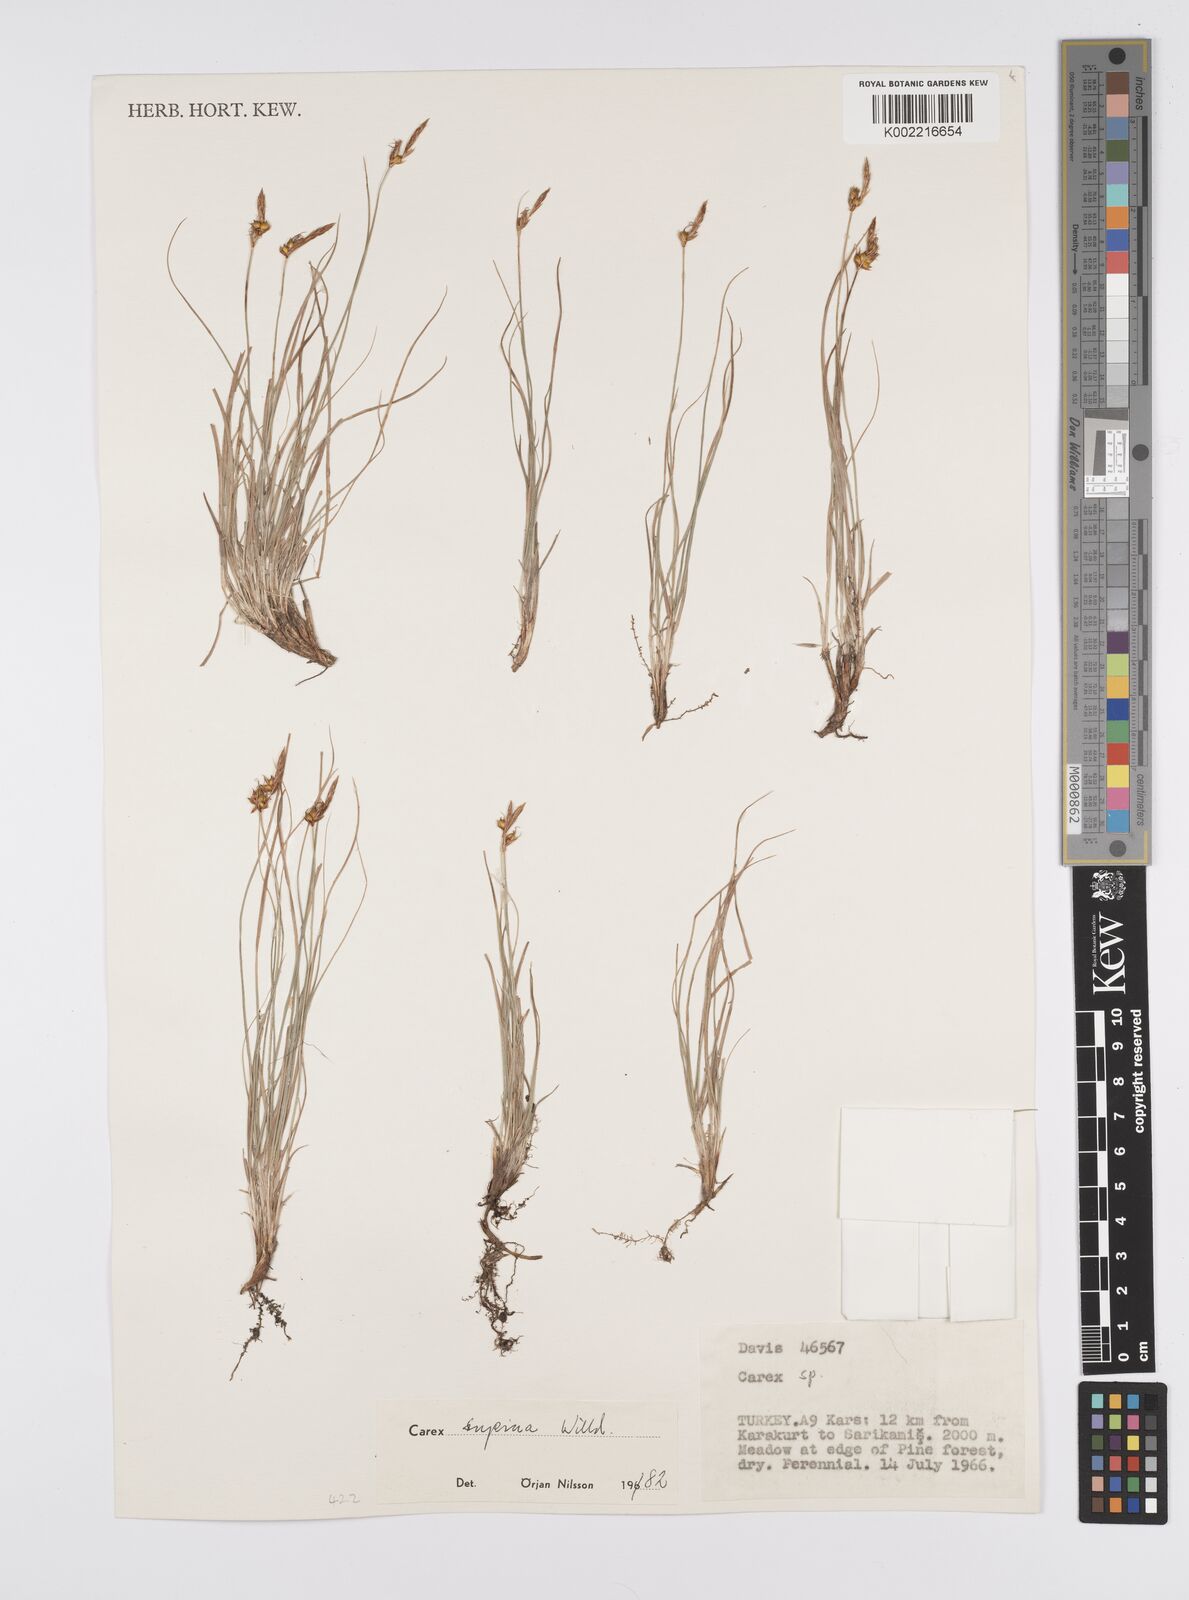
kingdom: Plantae
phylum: Tracheophyta
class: Liliopsida
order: Poales
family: Cyperaceae
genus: Carex
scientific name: Carex supina
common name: Lying-back sedge
